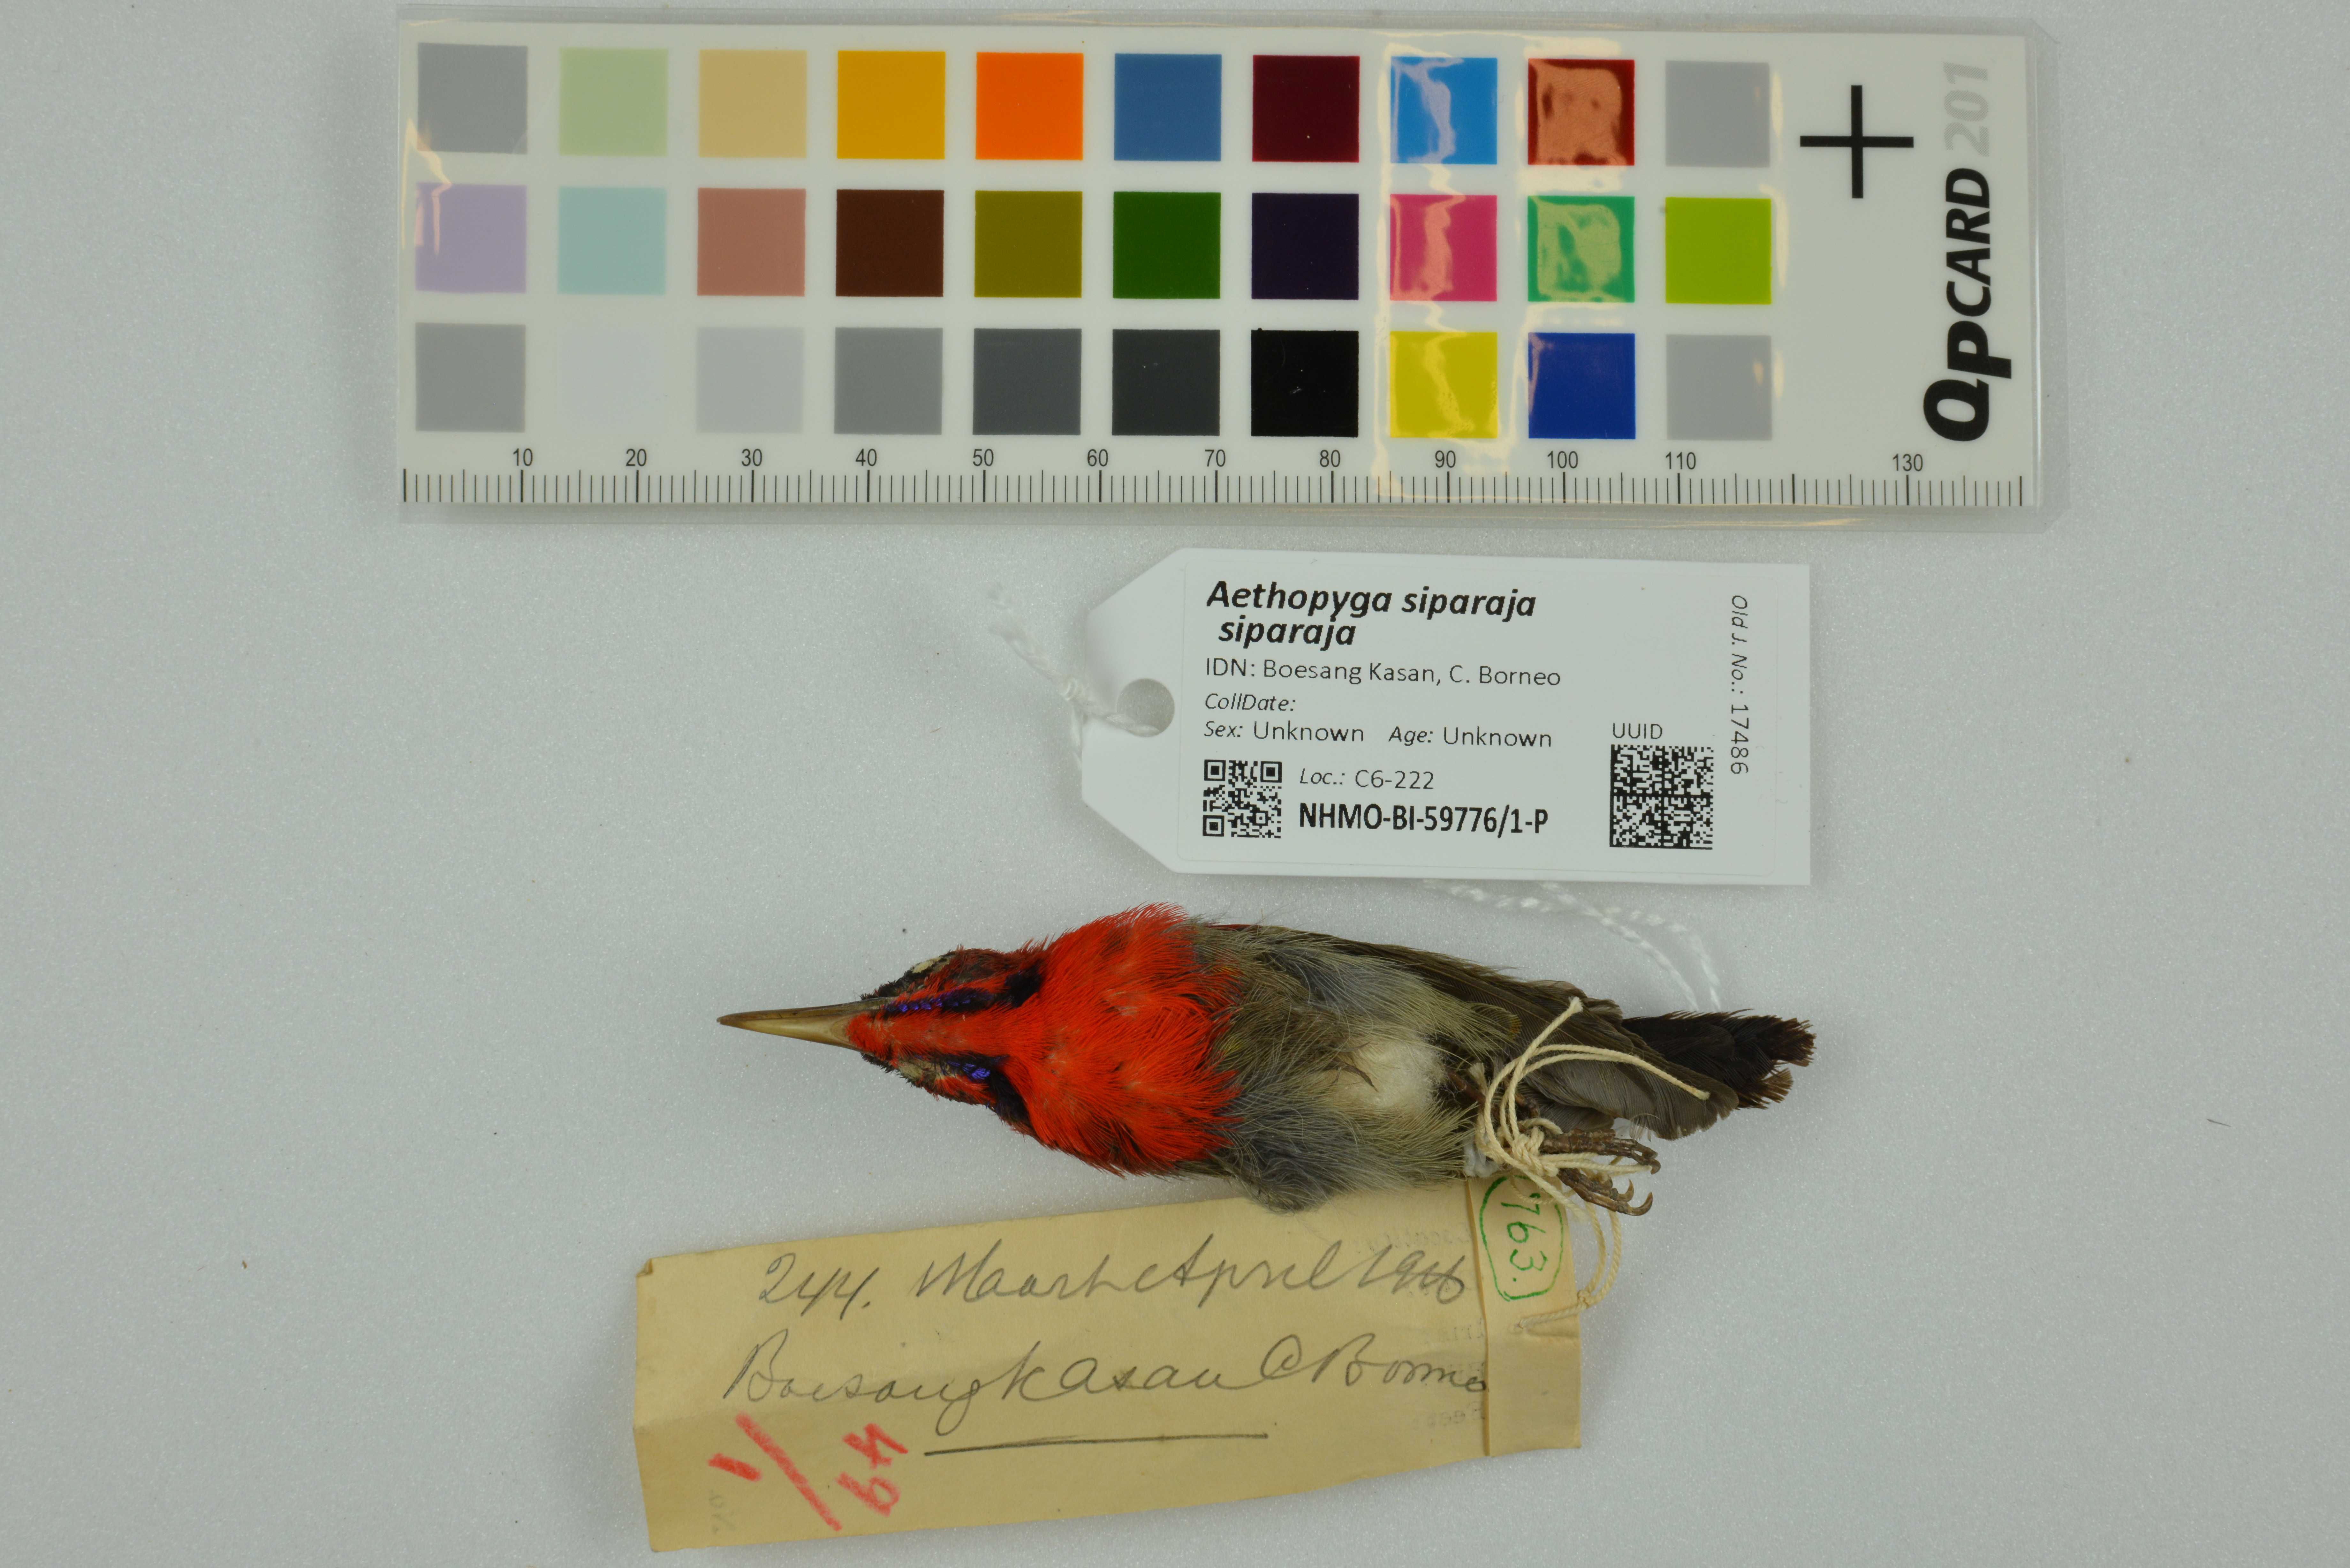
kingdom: Animalia
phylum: Chordata
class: Aves
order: Passeriformes
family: Nectariniidae
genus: Aethopyga
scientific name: Aethopyga siparaja
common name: Crimson sunbird
